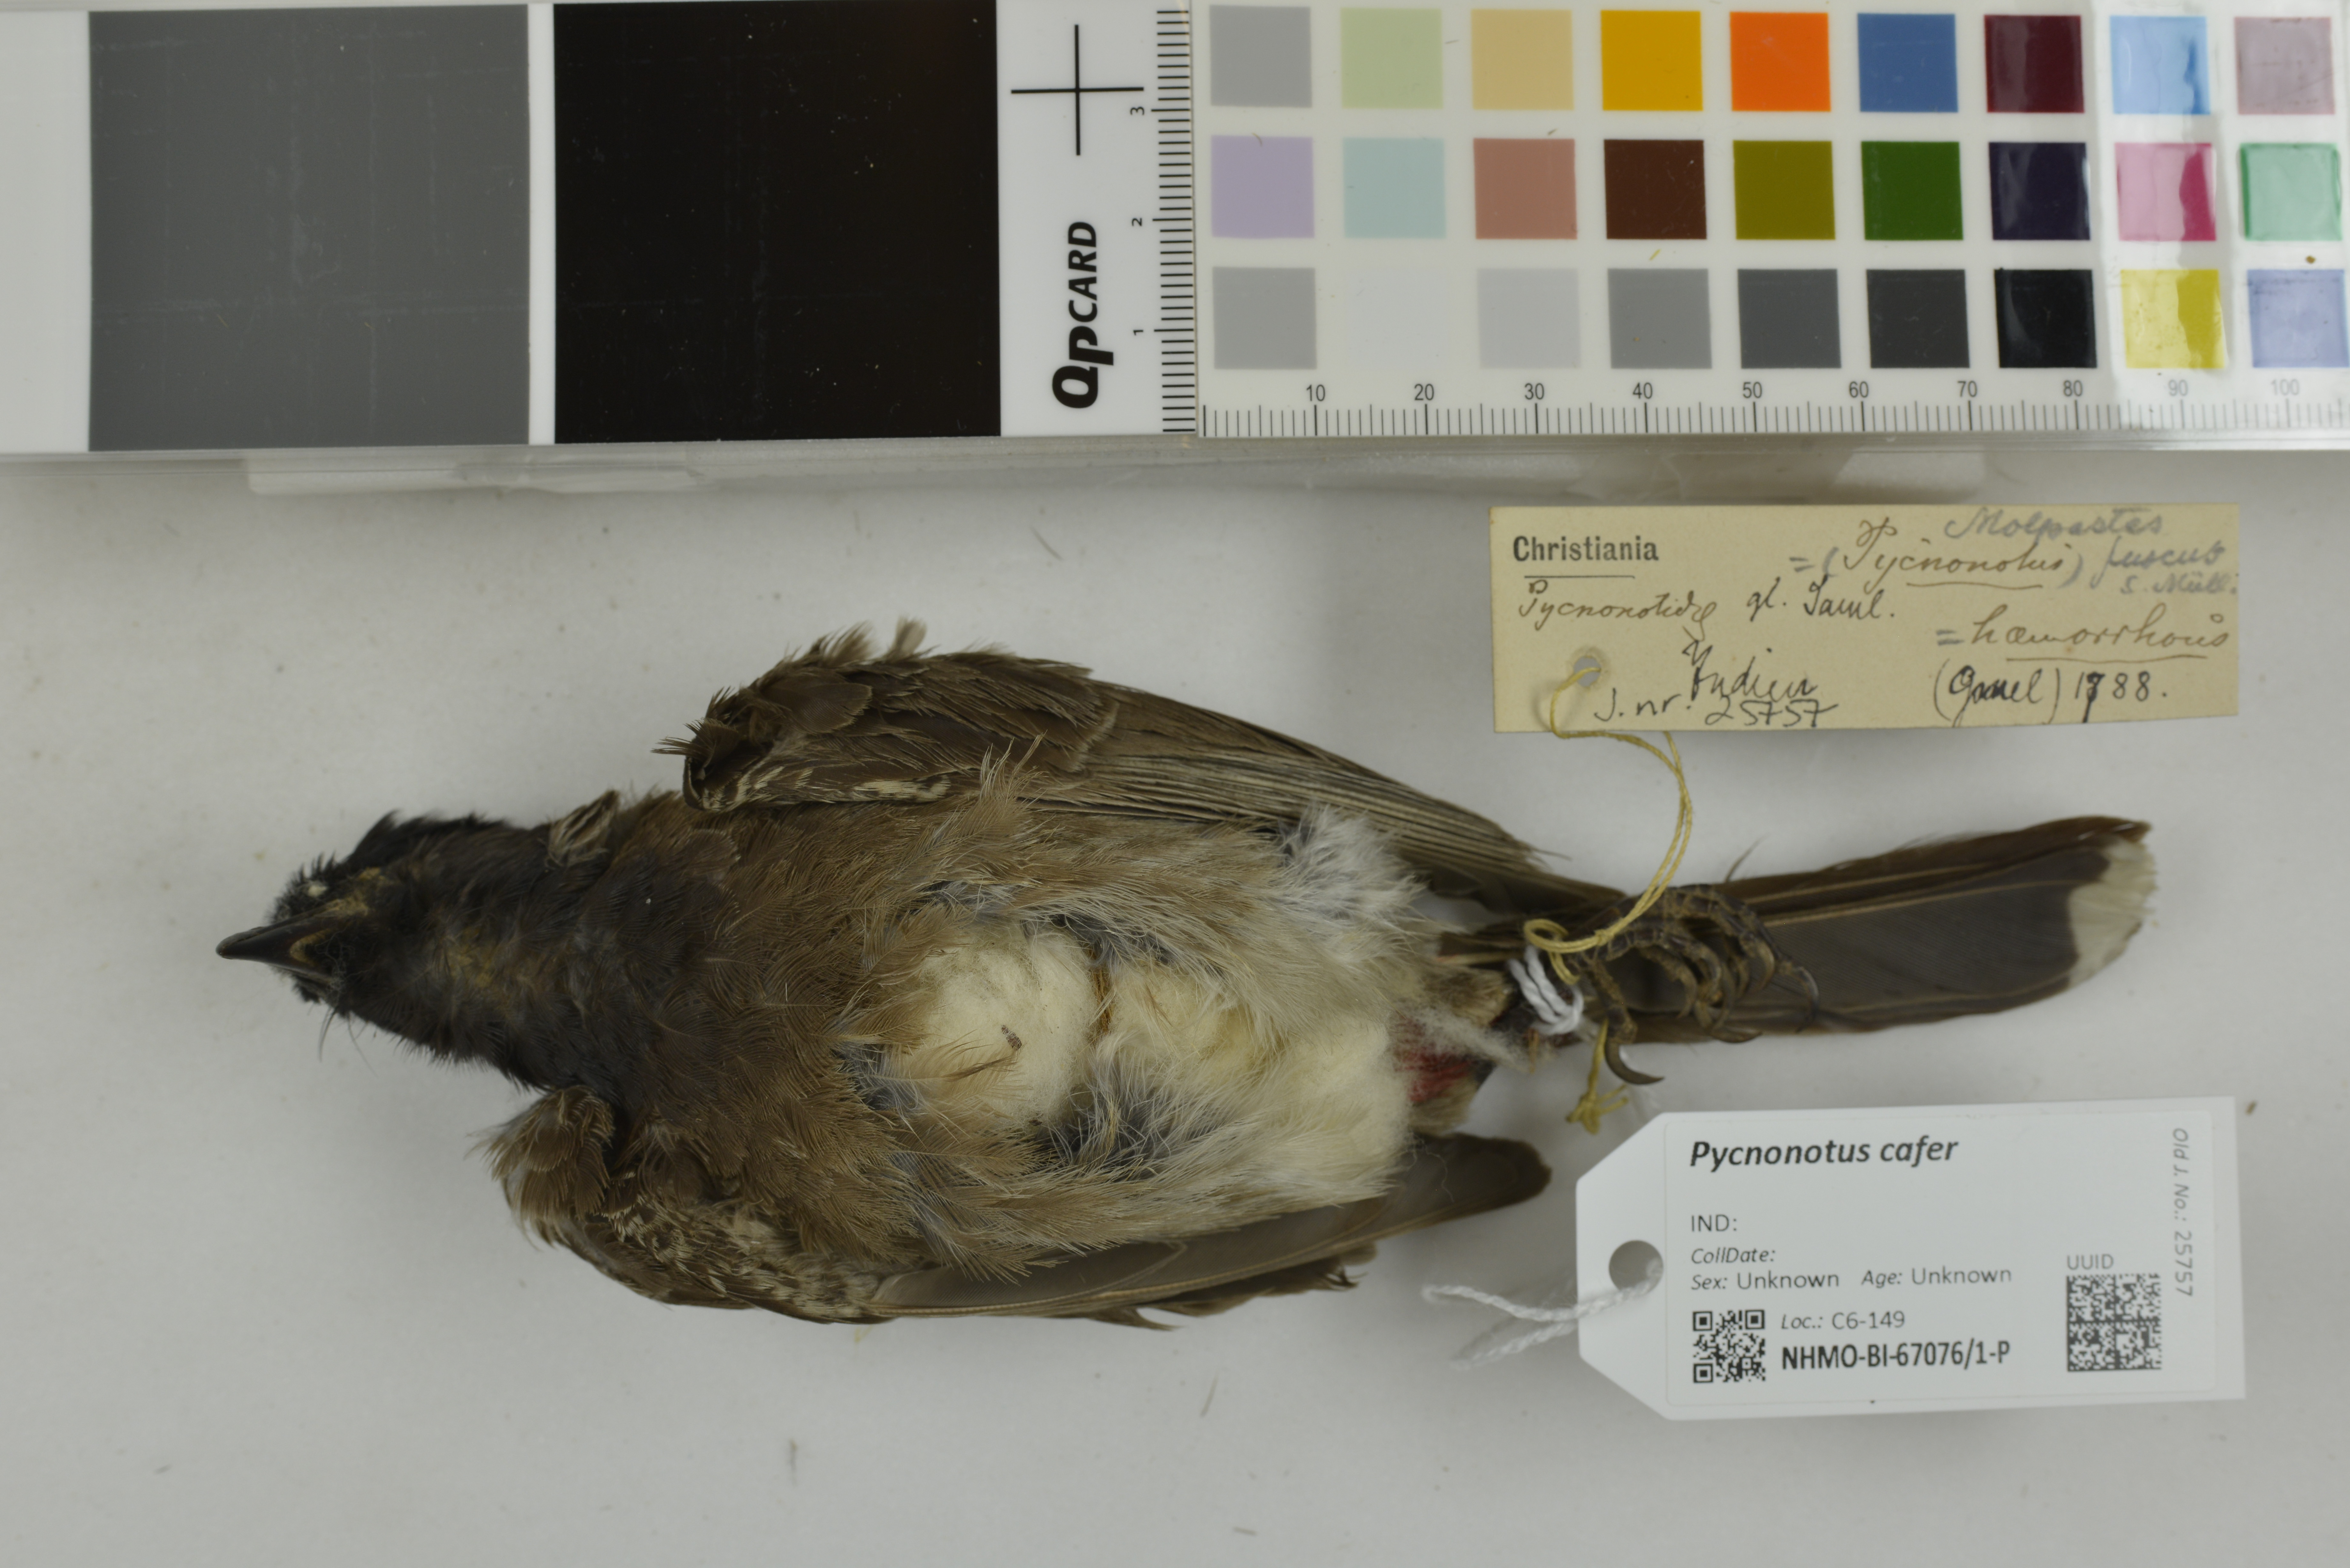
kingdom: Animalia
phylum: Chordata
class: Aves
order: Passeriformes
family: Pycnonotidae
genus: Pycnonotus
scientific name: Pycnonotus cafer
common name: Red-vented bulbul
